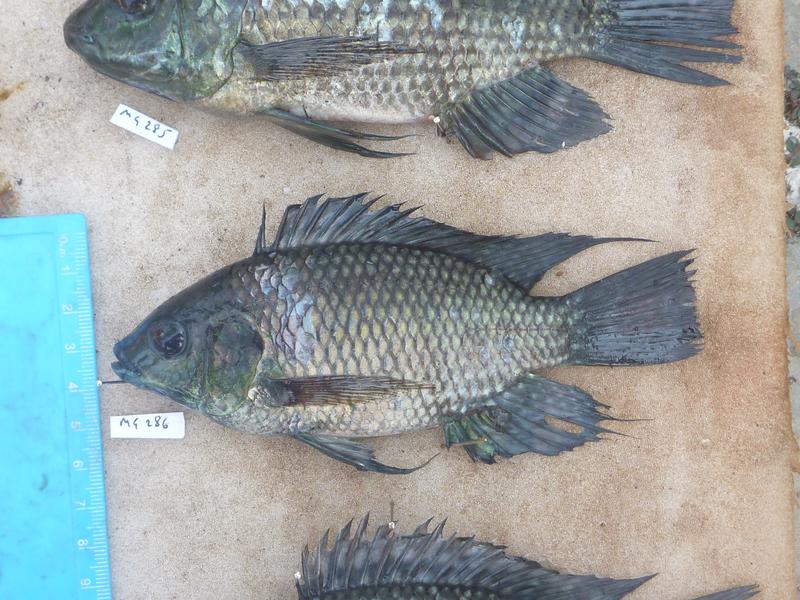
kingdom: Animalia
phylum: Chordata
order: Perciformes
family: Cichlidae
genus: Oreochromis
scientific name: Oreochromis leucostictus
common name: Blue spotted tilapia
